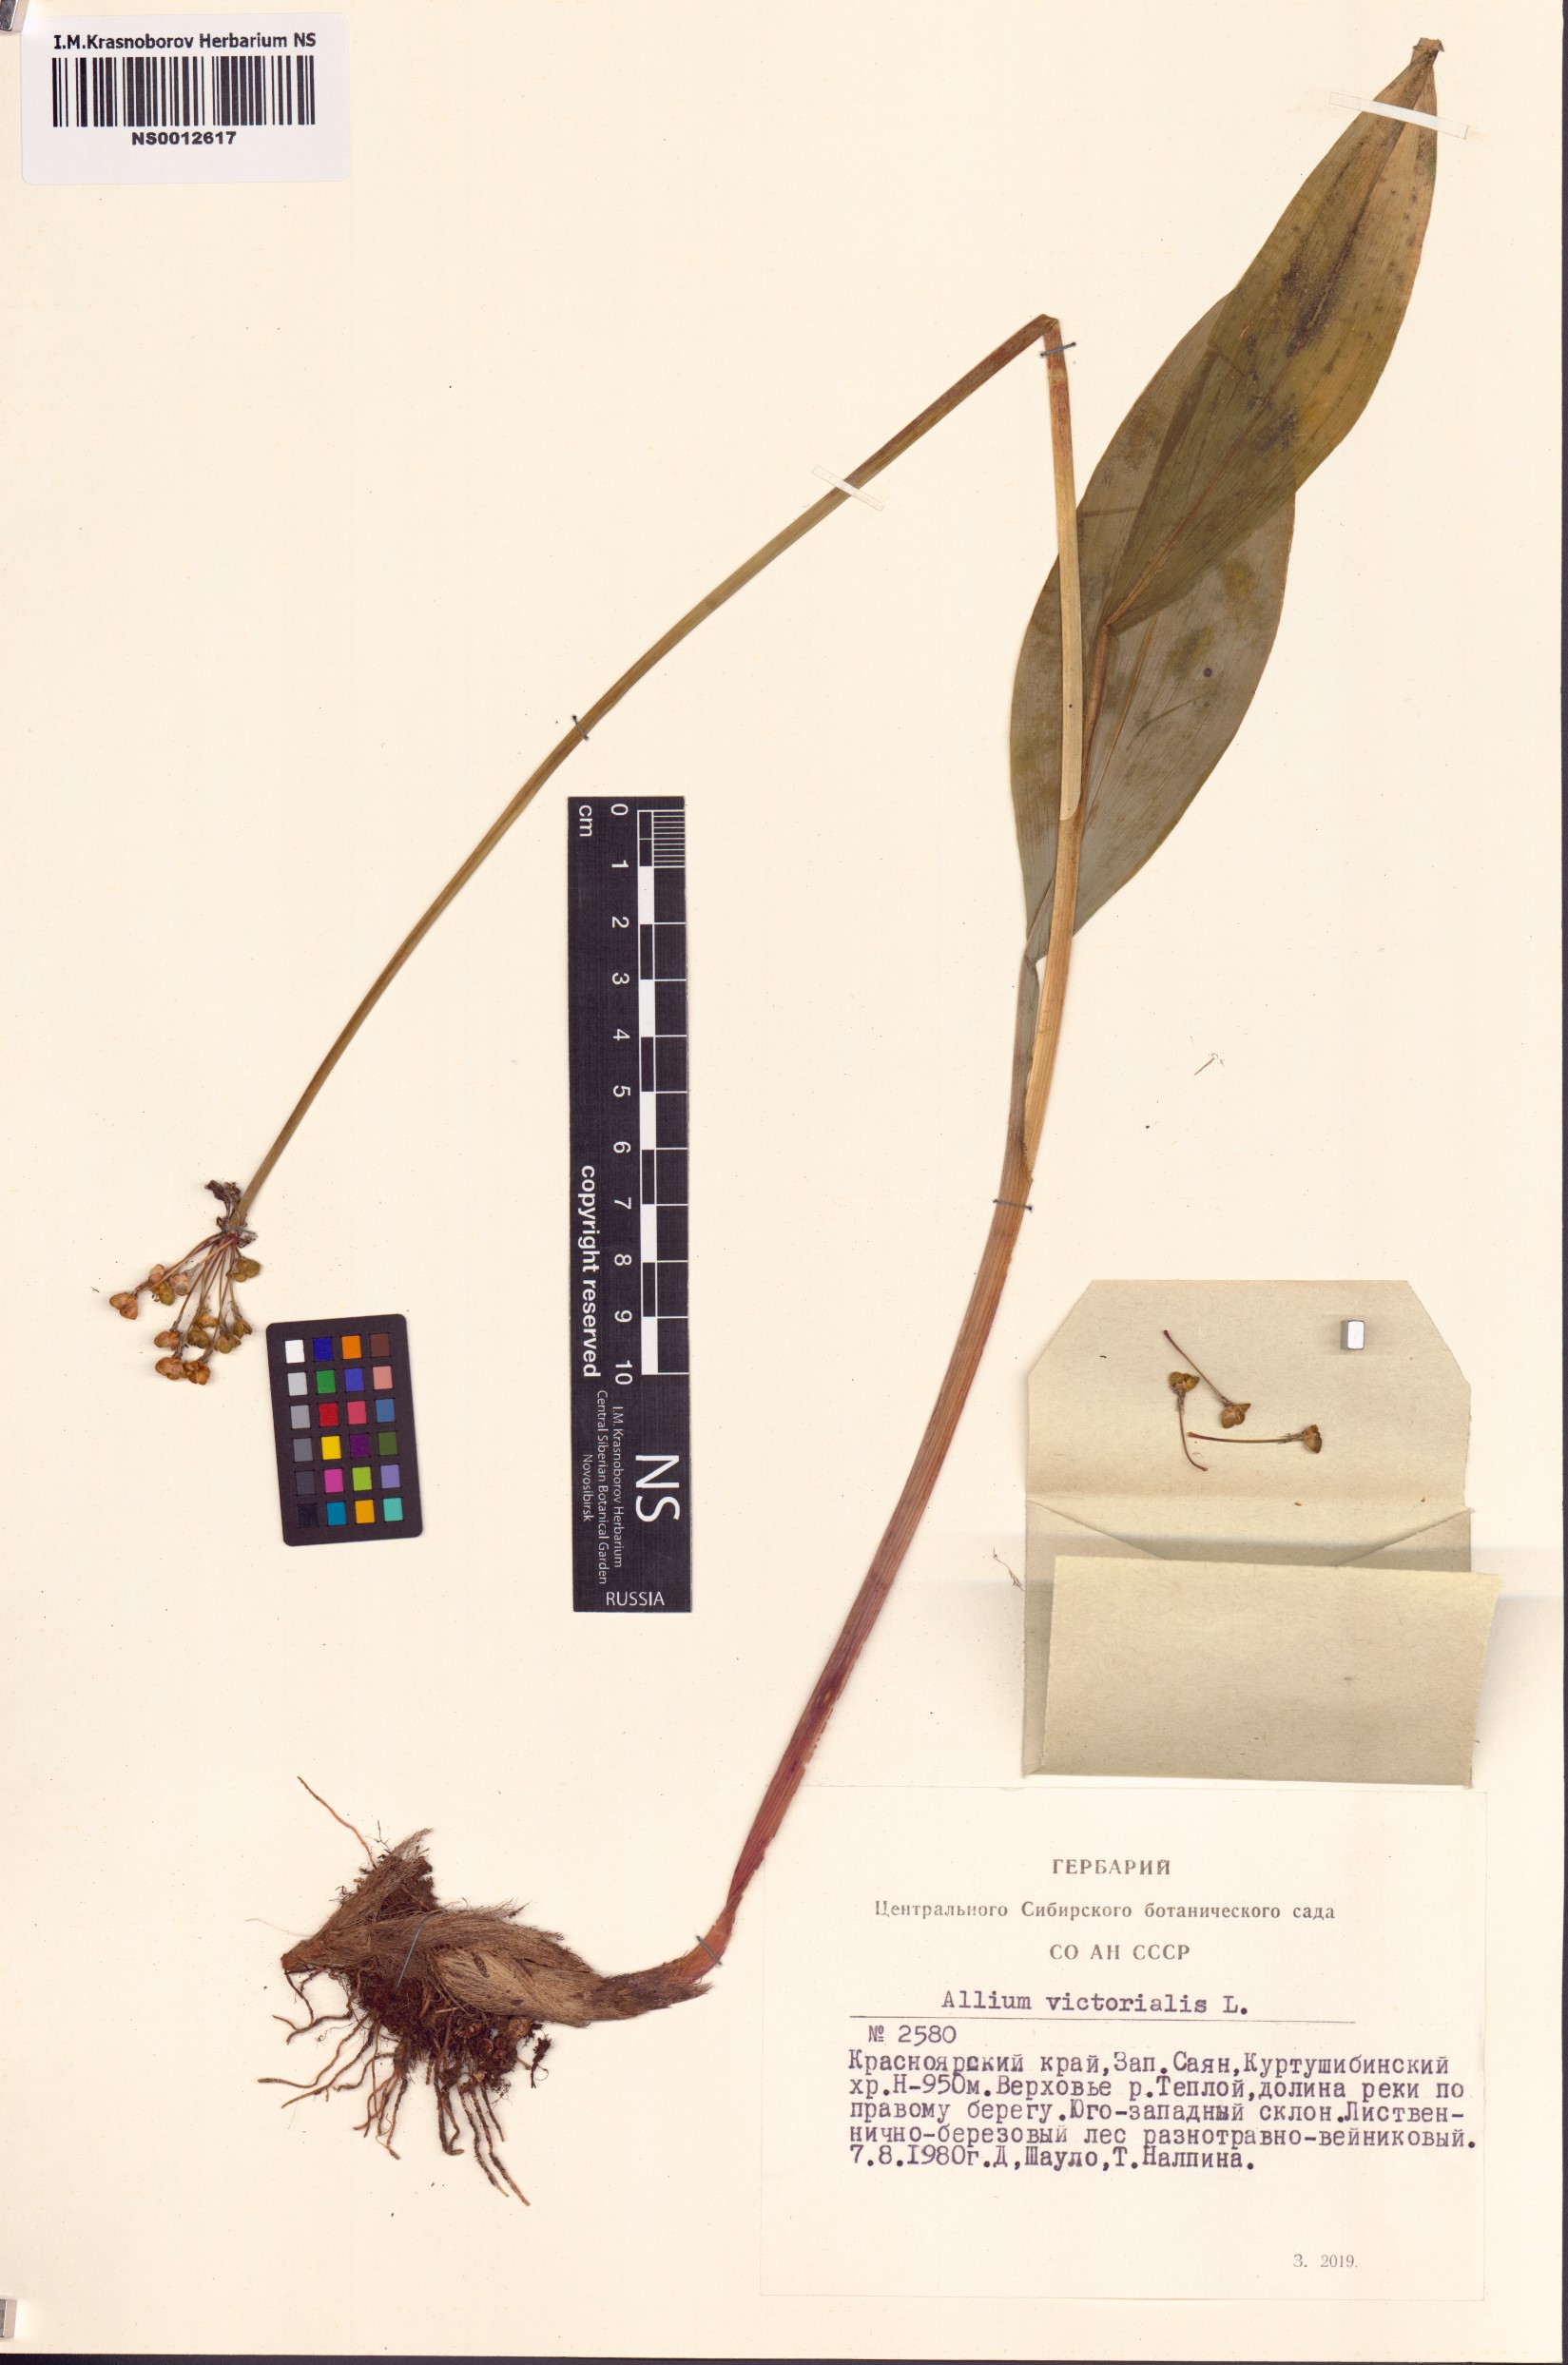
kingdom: Plantae
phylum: Tracheophyta
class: Liliopsida
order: Asparagales
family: Amaryllidaceae
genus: Allium
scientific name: Allium microdictyon
